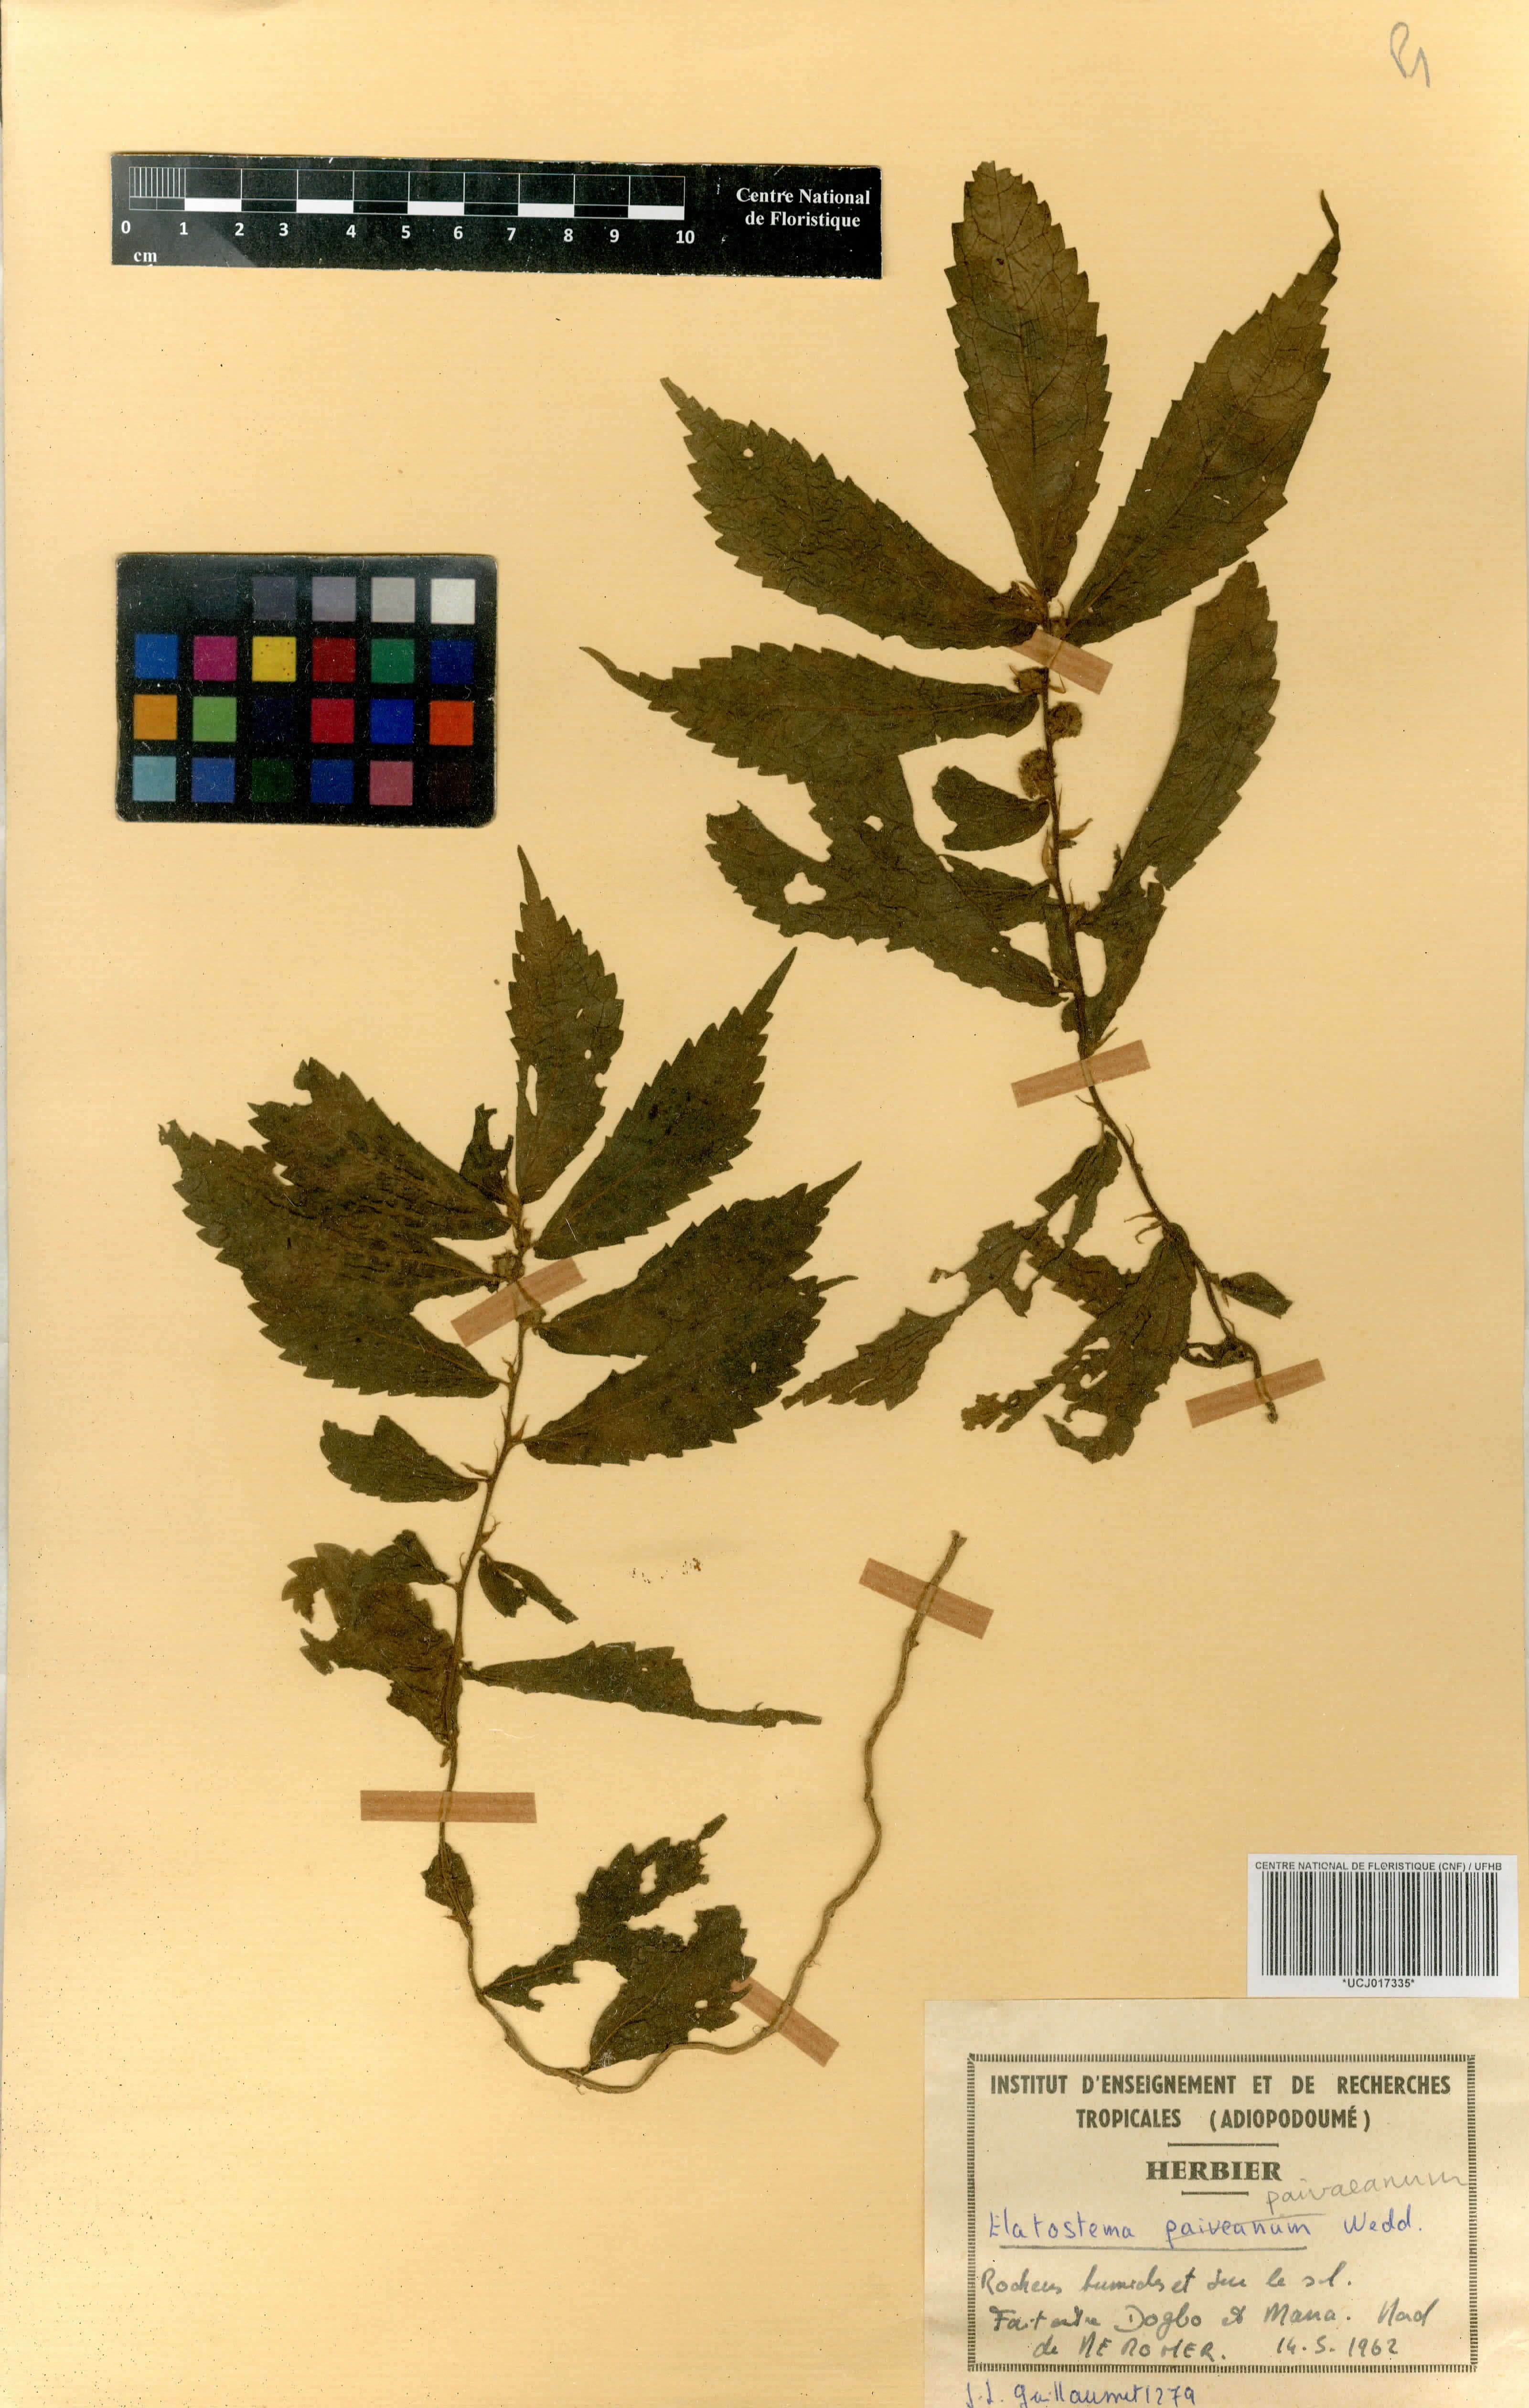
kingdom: Plantae
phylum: Tracheophyta
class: Magnoliopsida
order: Rosales
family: Urticaceae
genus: Elatostema
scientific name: Elatostema paivaeanum
